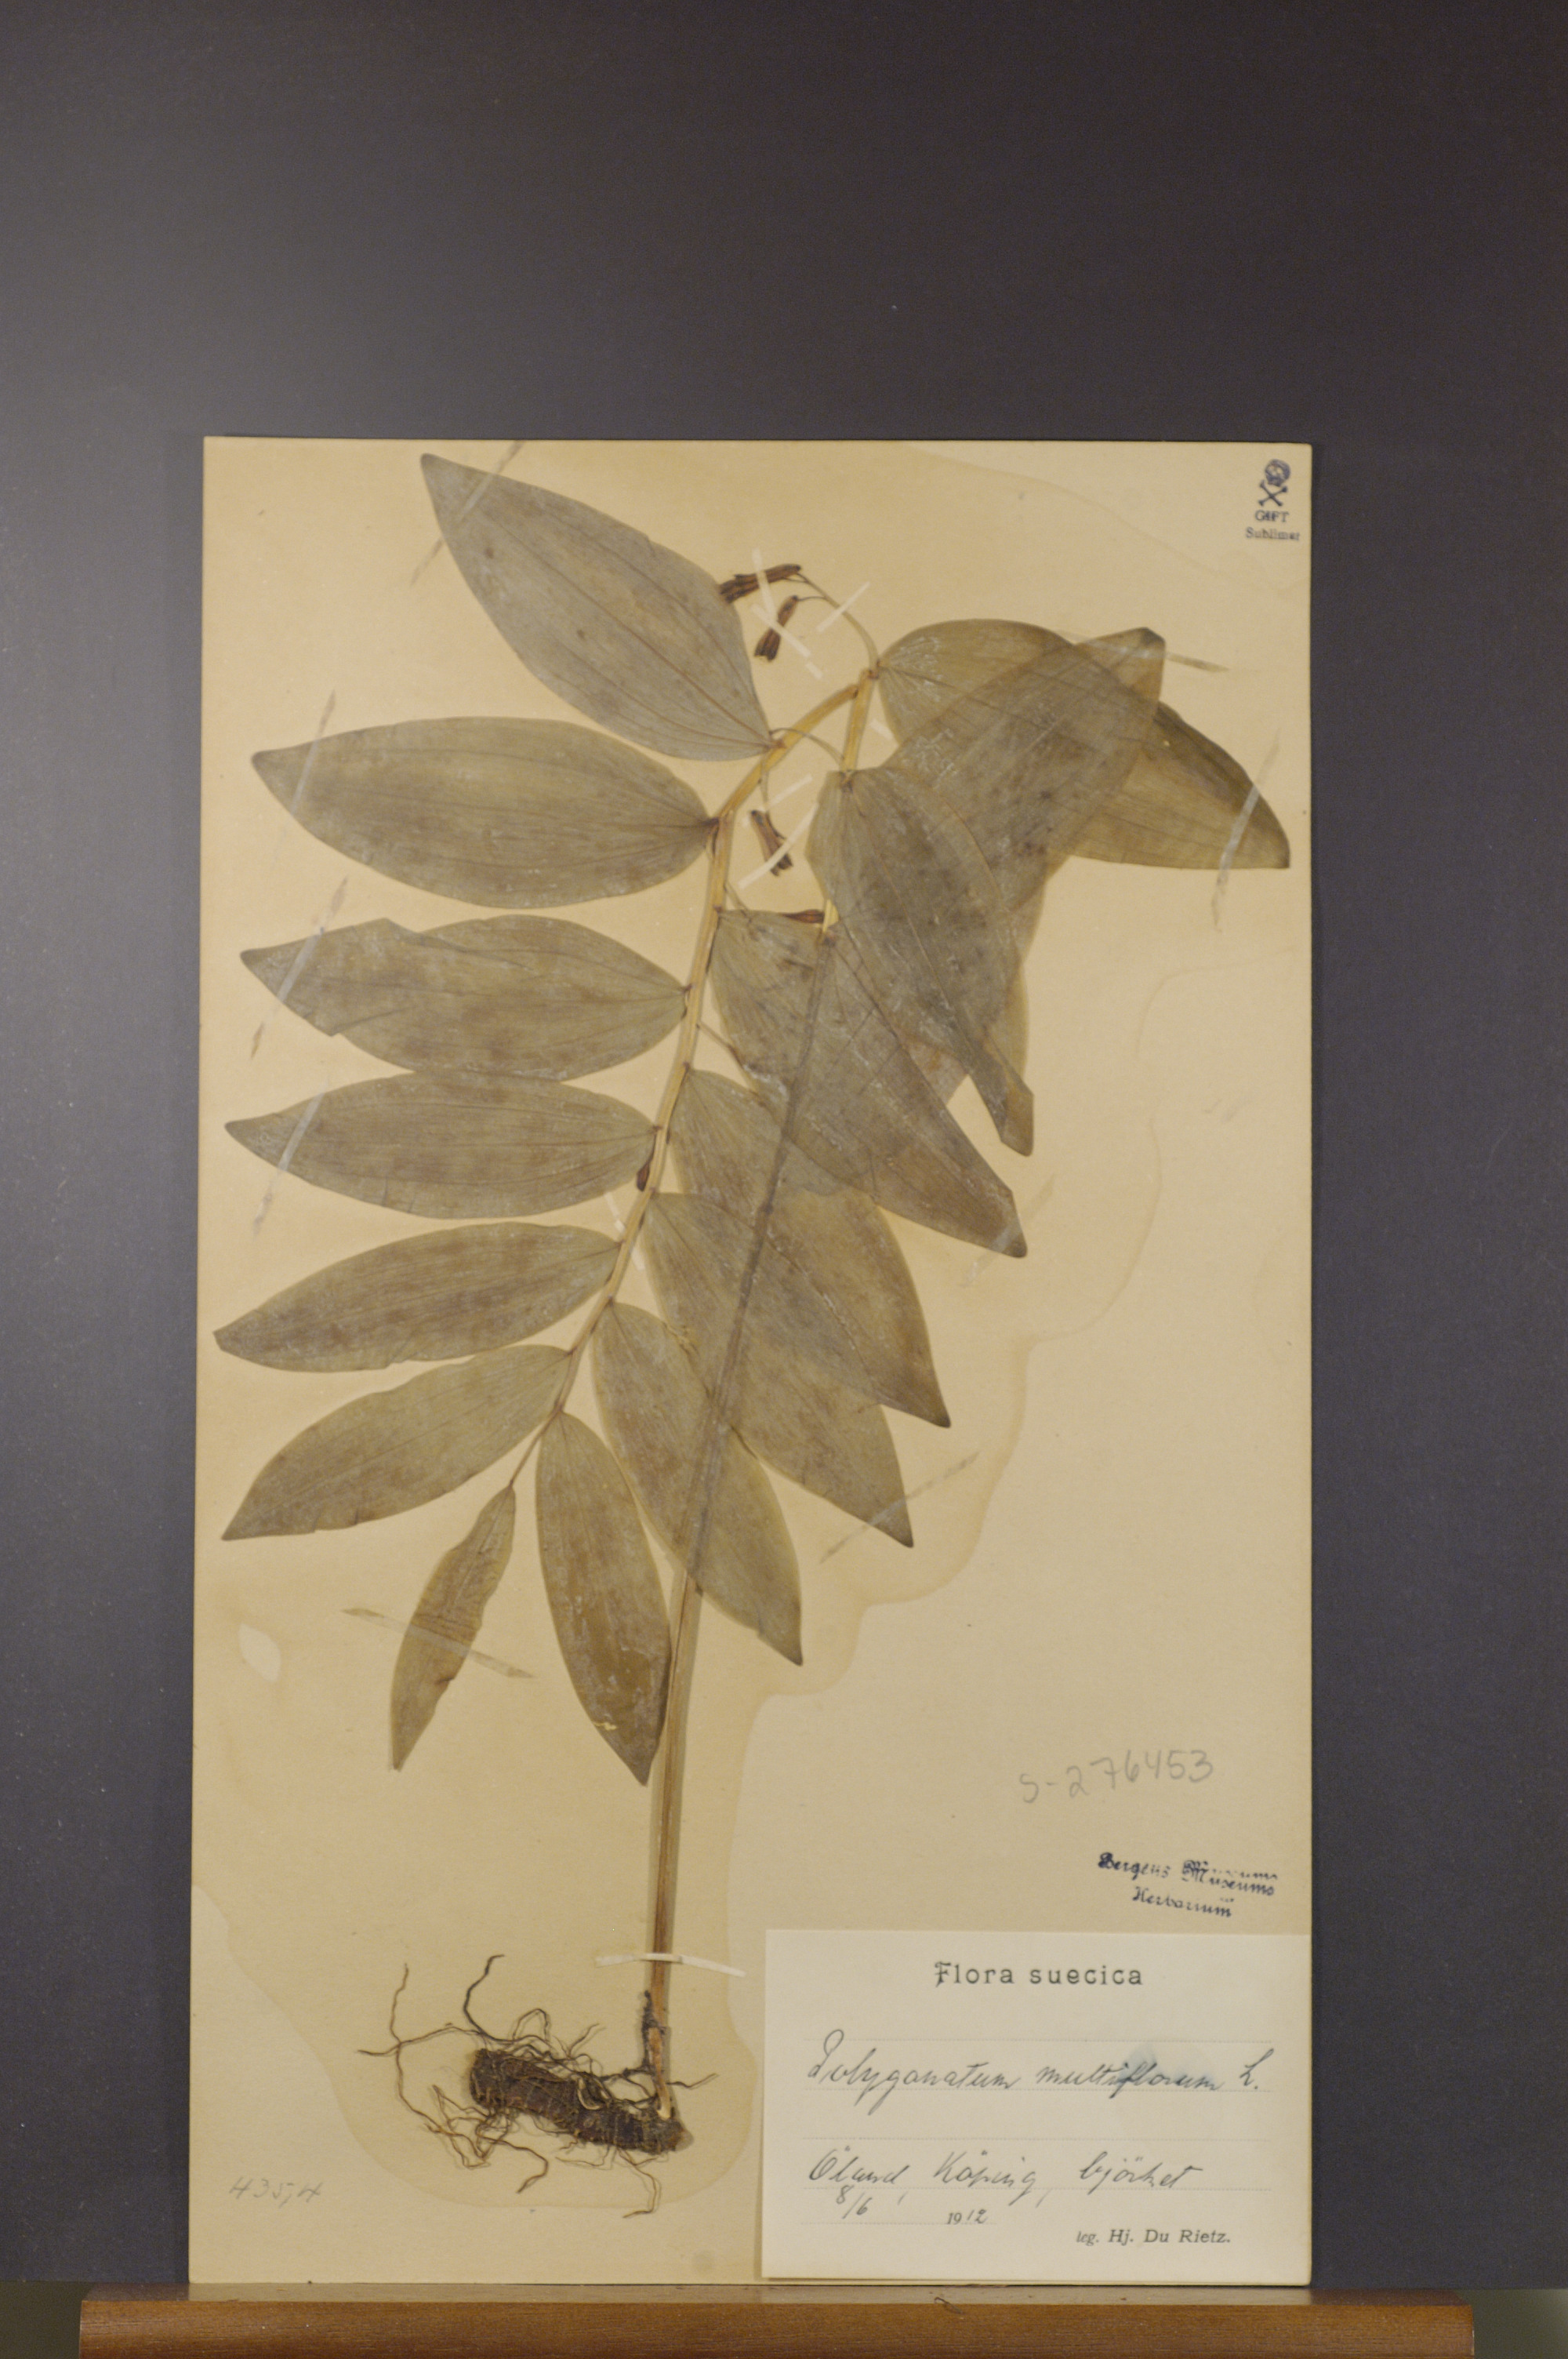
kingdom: Plantae
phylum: Tracheophyta
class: Liliopsida
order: Asparagales
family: Asparagaceae
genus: Polygonatum
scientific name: Polygonatum multiflorum
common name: Solomon's-seal
